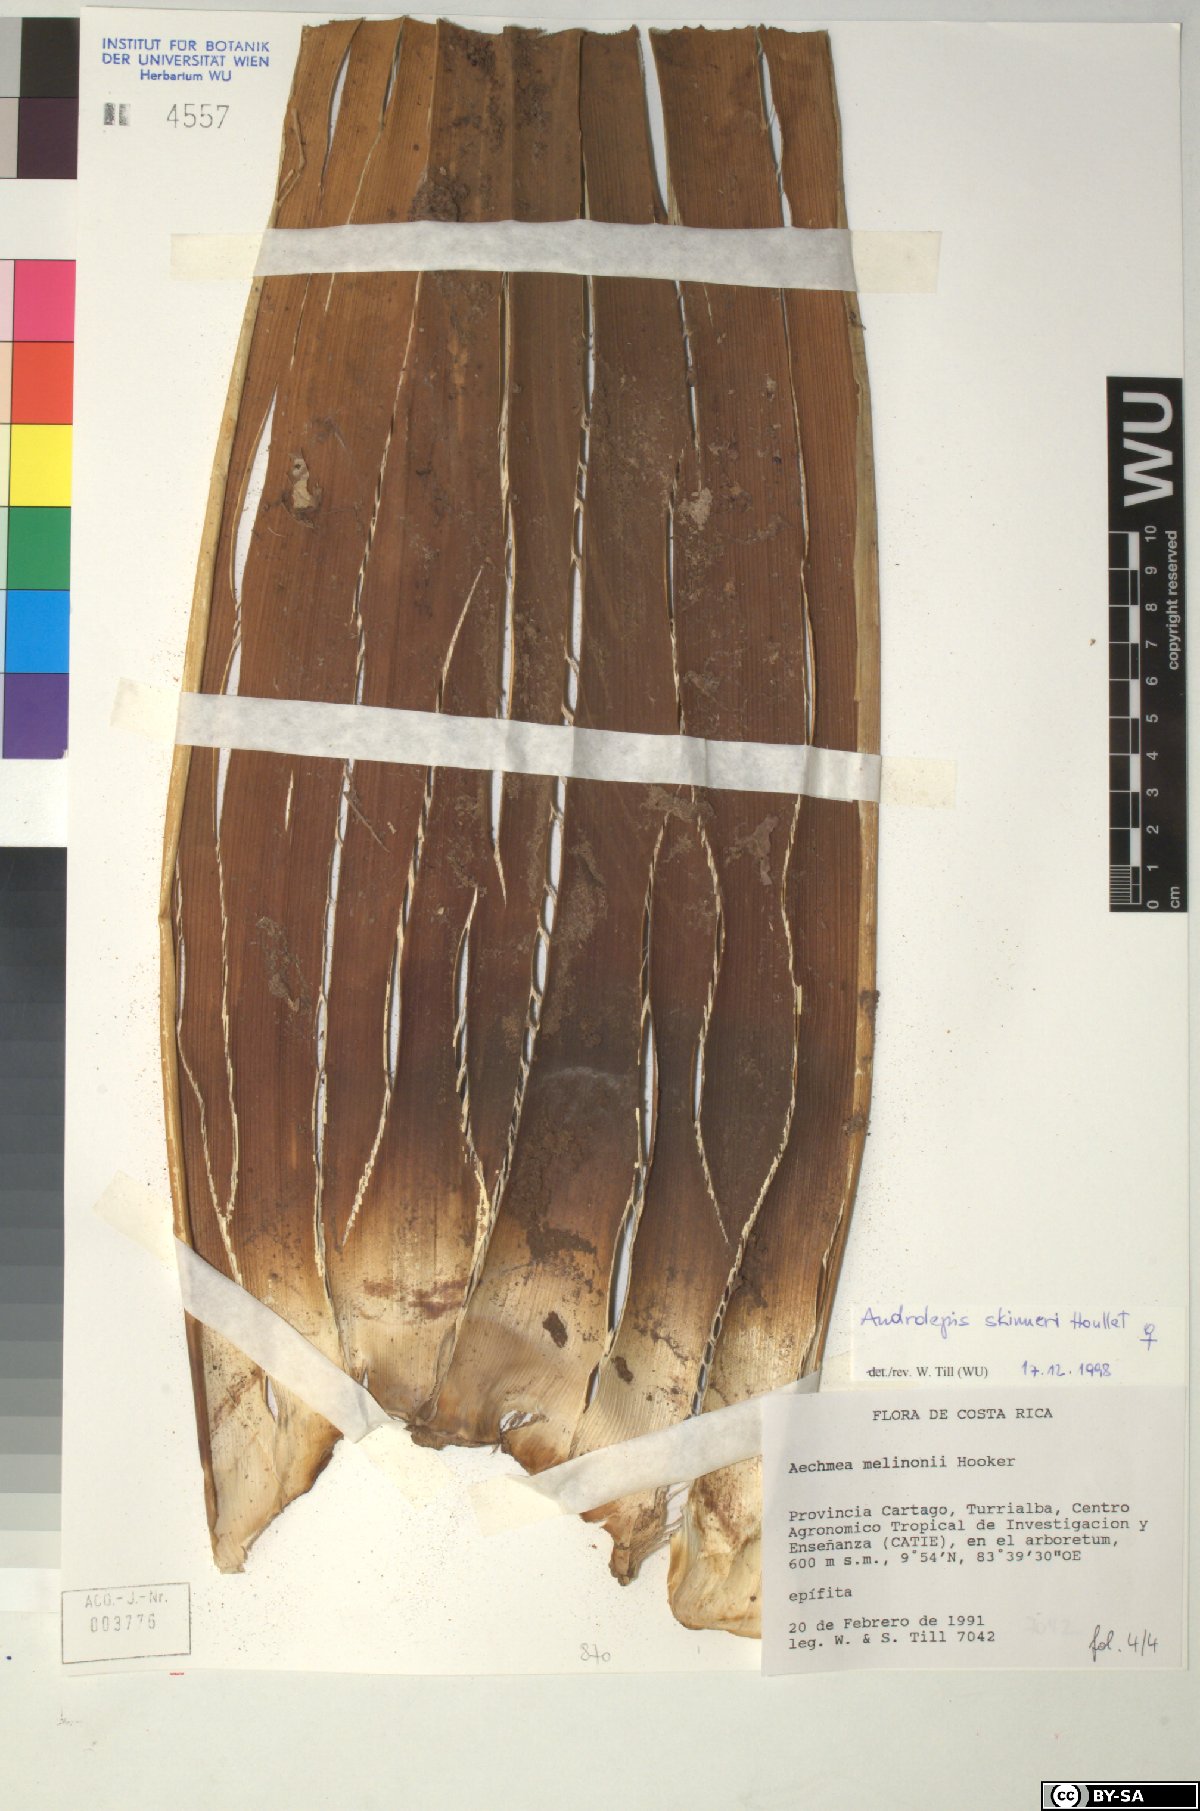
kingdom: Plantae
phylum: Tracheophyta
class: Liliopsida
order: Poales
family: Bromeliaceae
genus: Androlepis
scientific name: Androlepis skinneri
